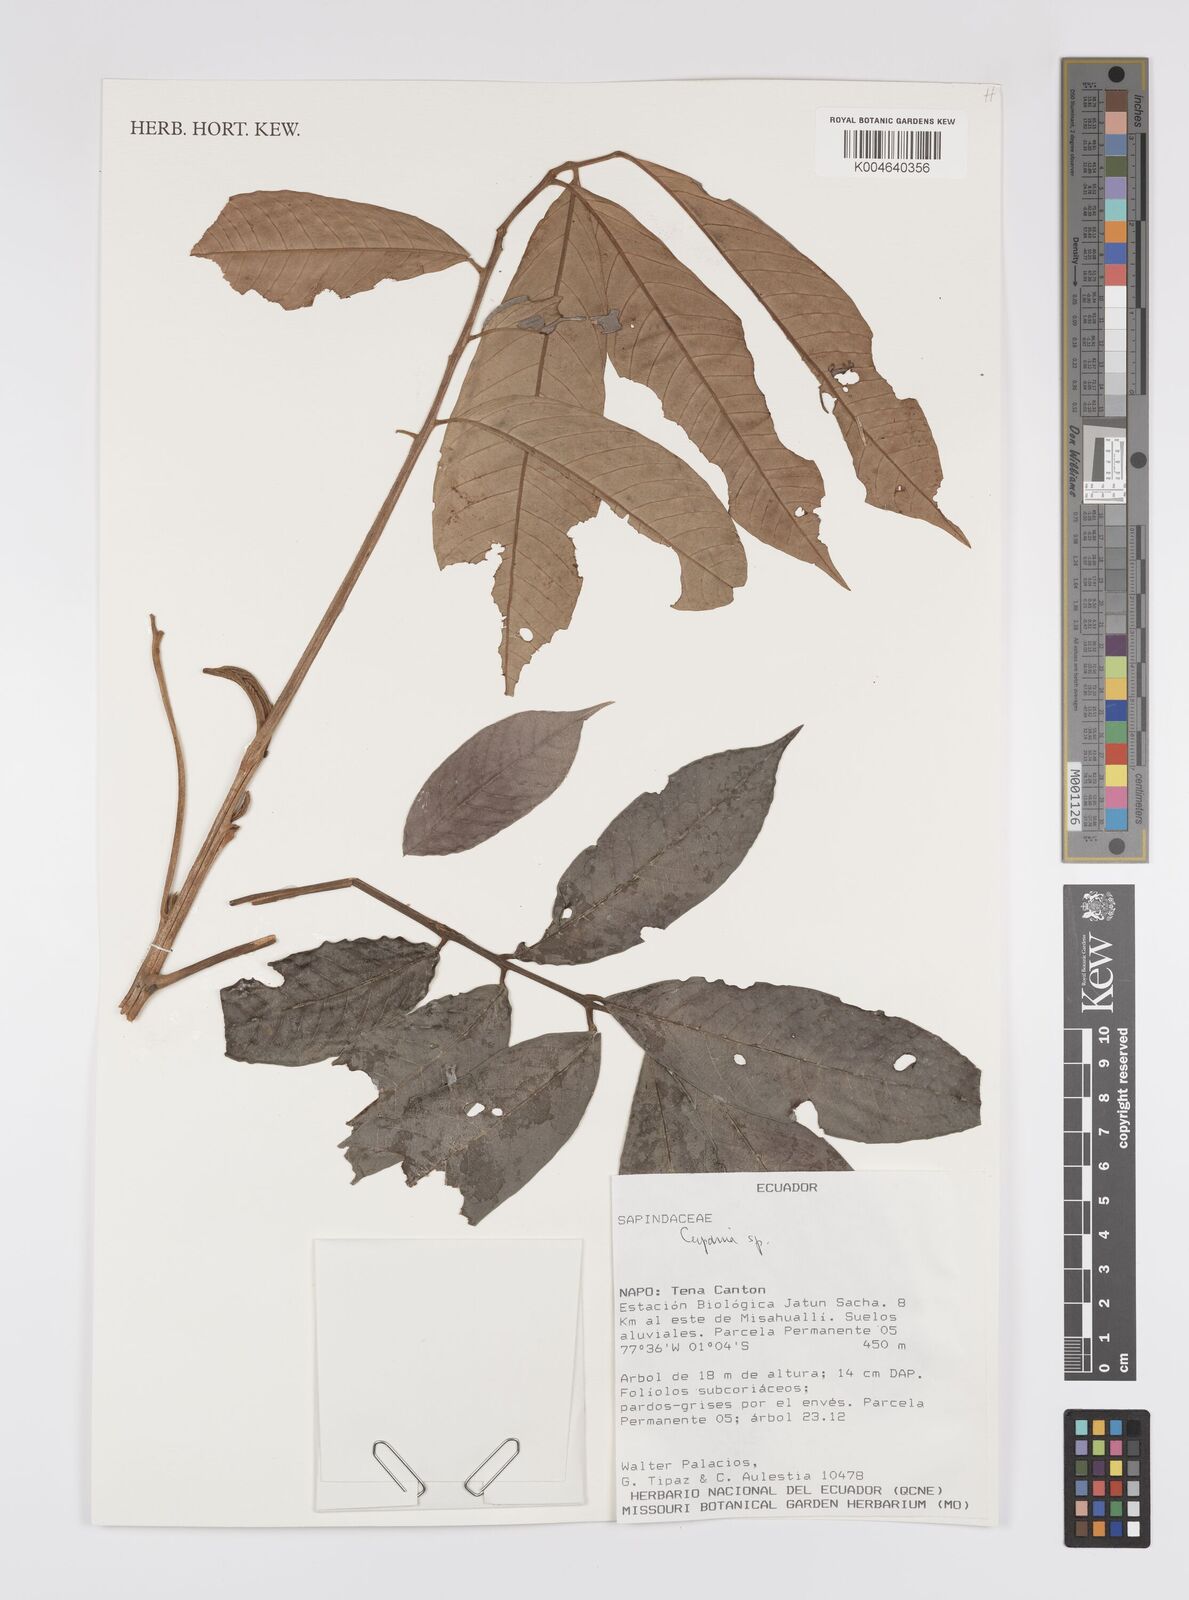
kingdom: Plantae
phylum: Tracheophyta
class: Magnoliopsida
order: Sapindales
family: Sapindaceae
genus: Cupania
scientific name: Cupania
